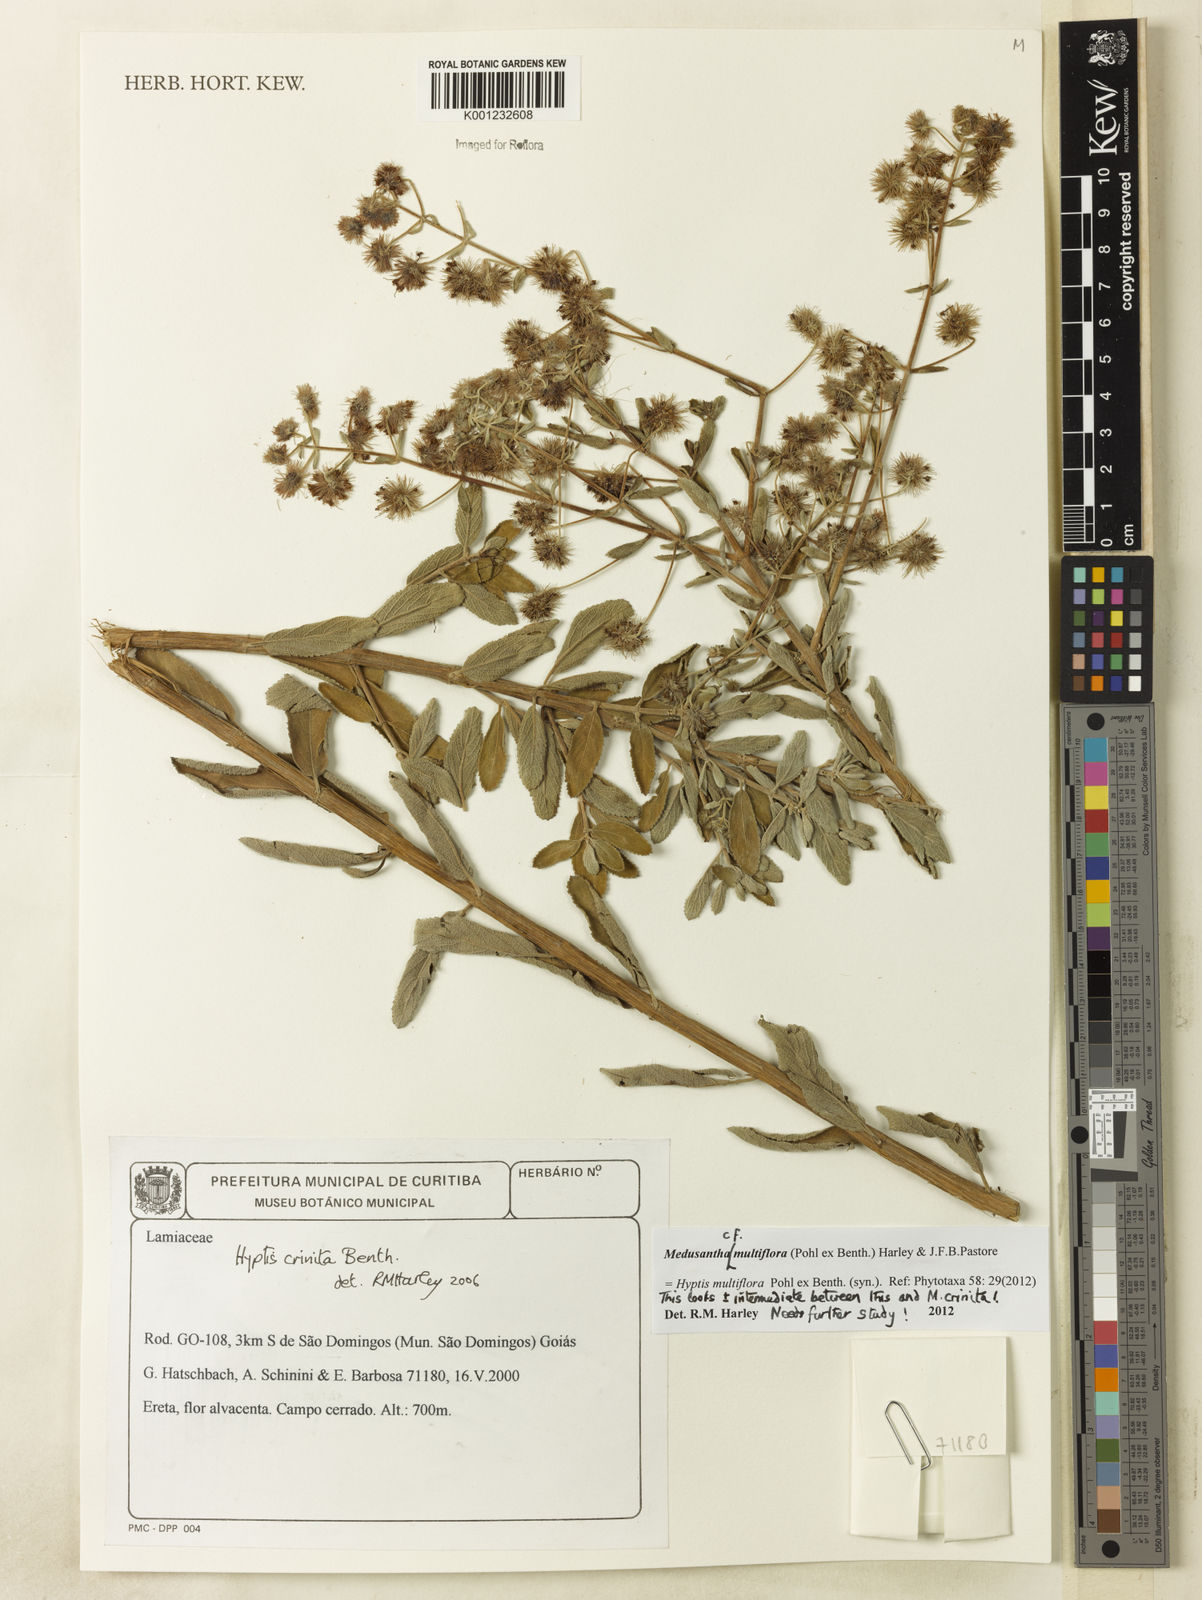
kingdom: Plantae
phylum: Tracheophyta
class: Magnoliopsida
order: Lamiales
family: Lamiaceae
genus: Medusantha
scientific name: Medusantha multiflora
